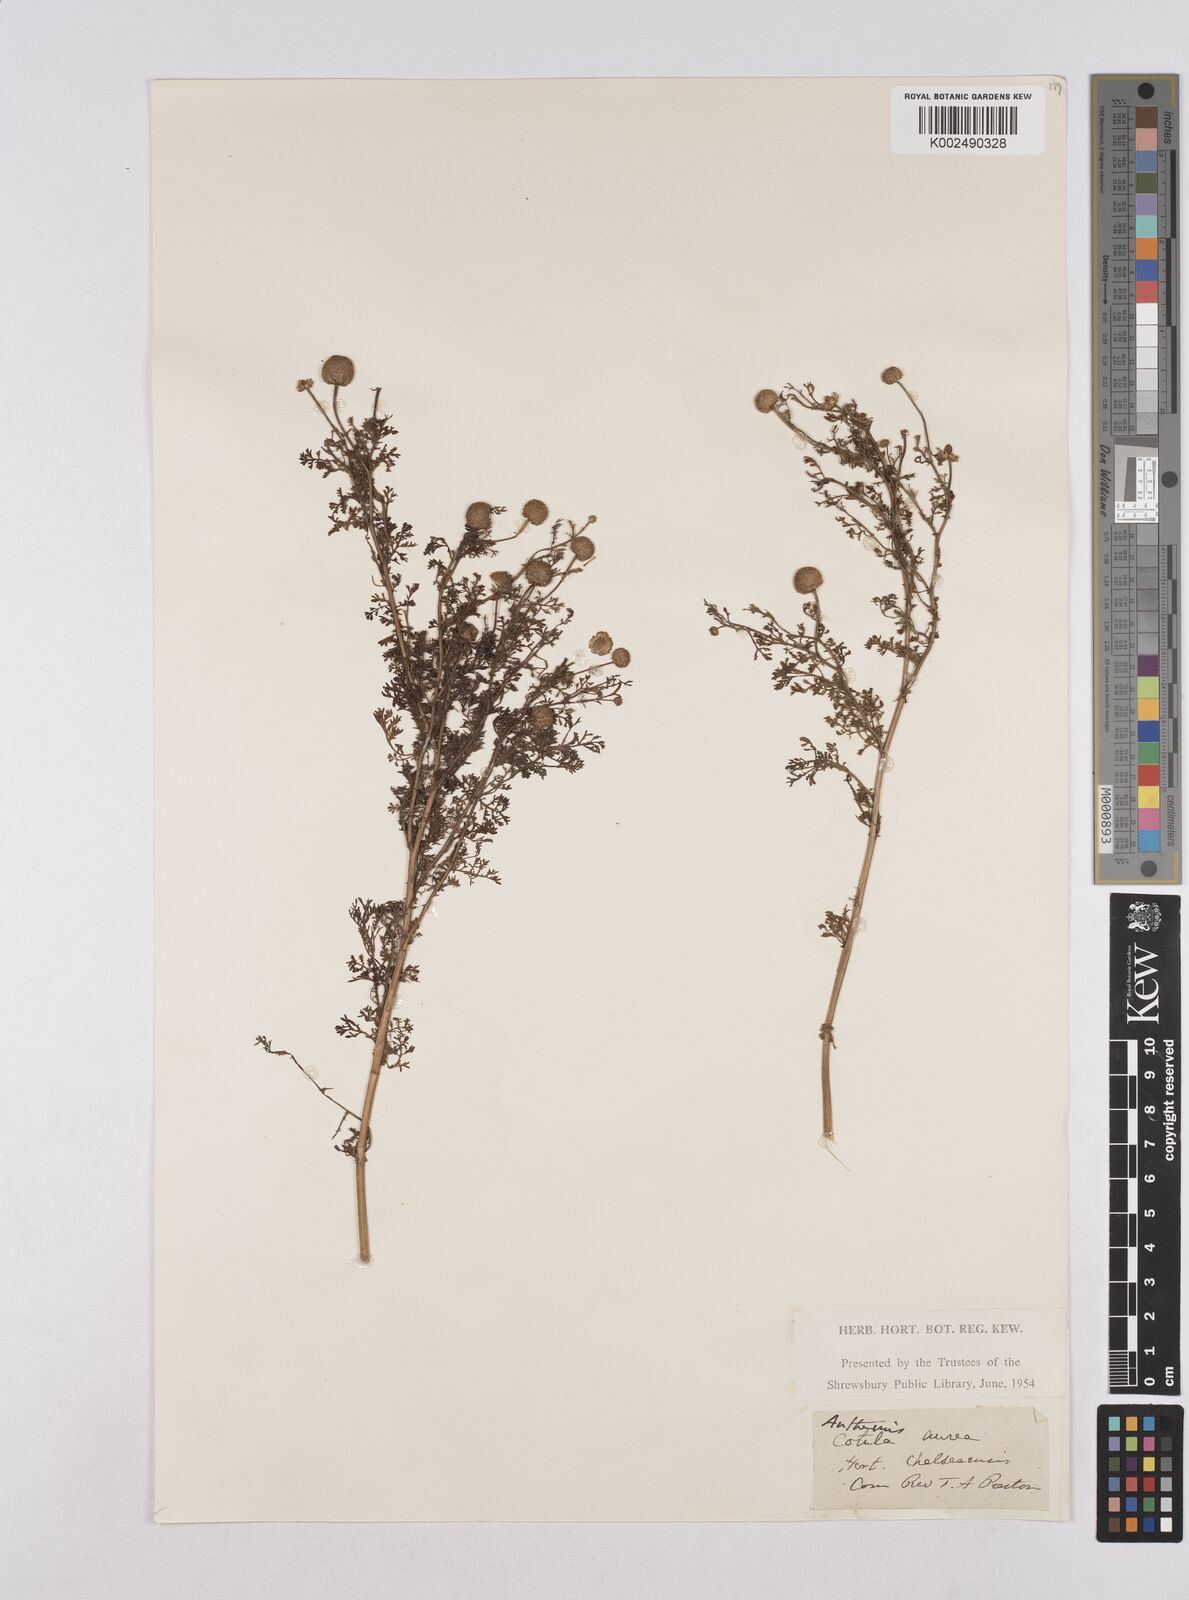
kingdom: Plantae
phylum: Tracheophyta
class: Magnoliopsida
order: Asterales
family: Asteraceae
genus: Matricaria
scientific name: Matricaria chamomilla
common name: Scented mayweed
